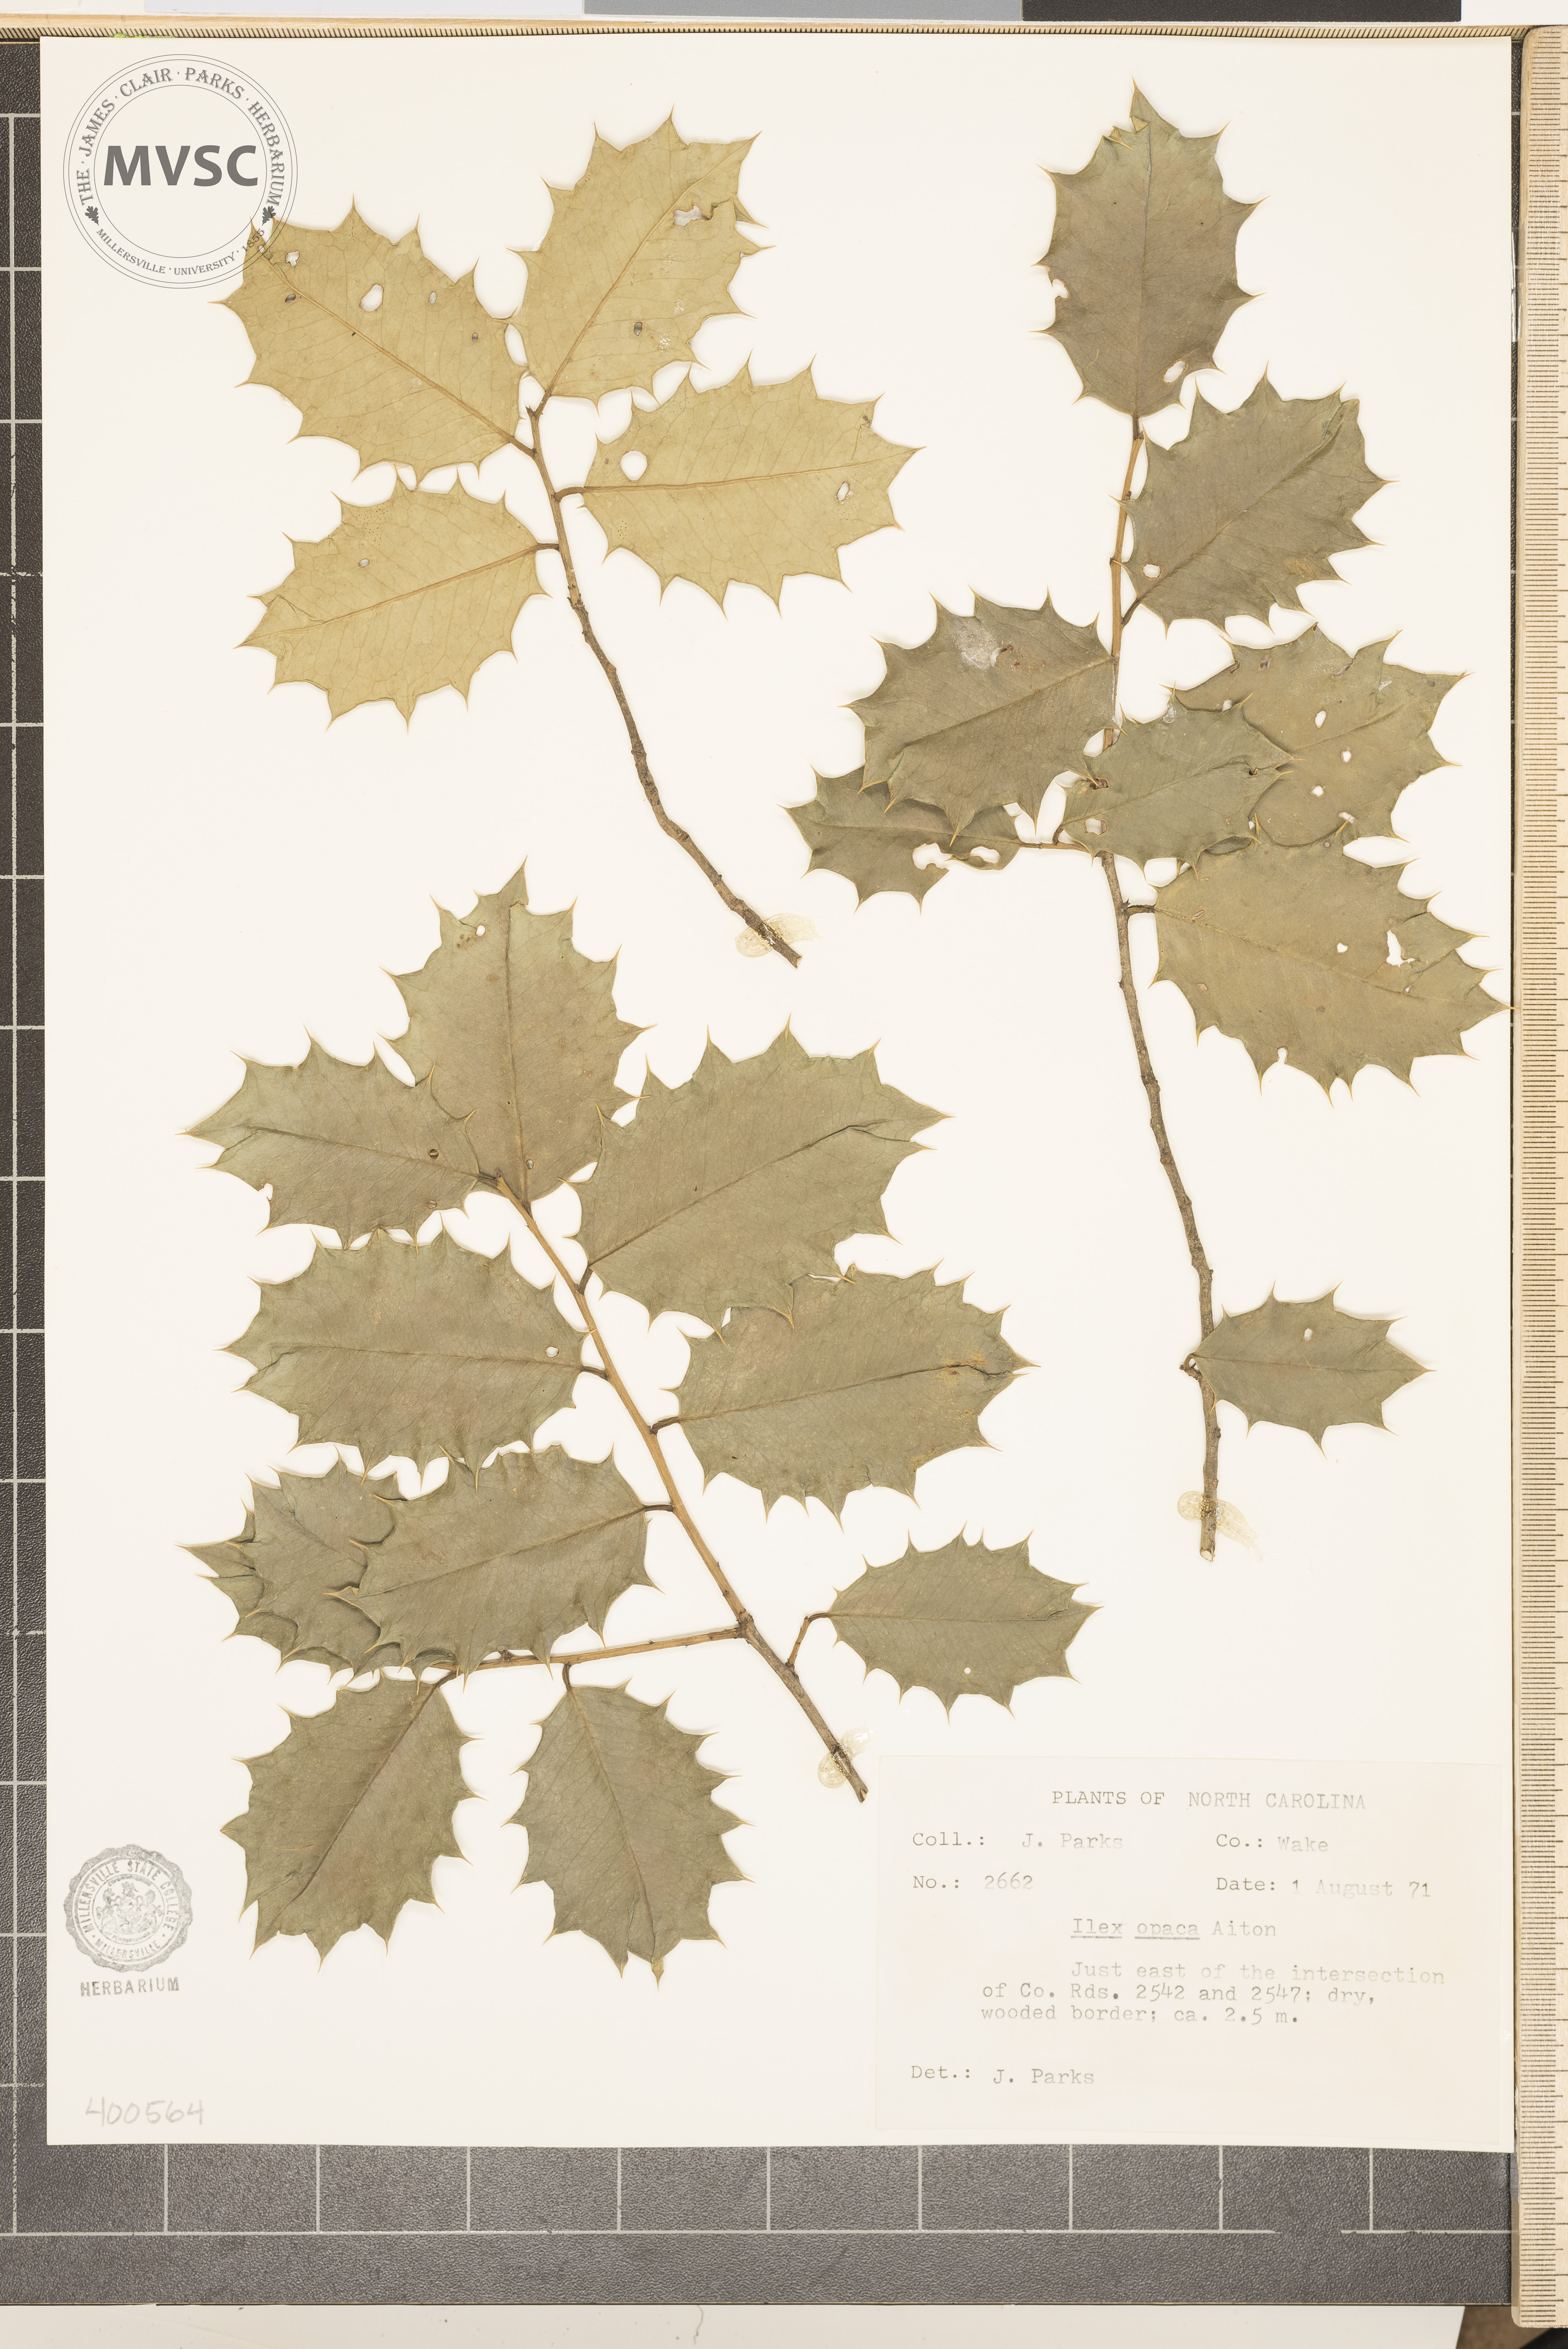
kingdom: Plantae
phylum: Tracheophyta
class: Magnoliopsida
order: Aquifoliales
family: Aquifoliaceae
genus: Ilex
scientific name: Ilex opaca
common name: American holly
